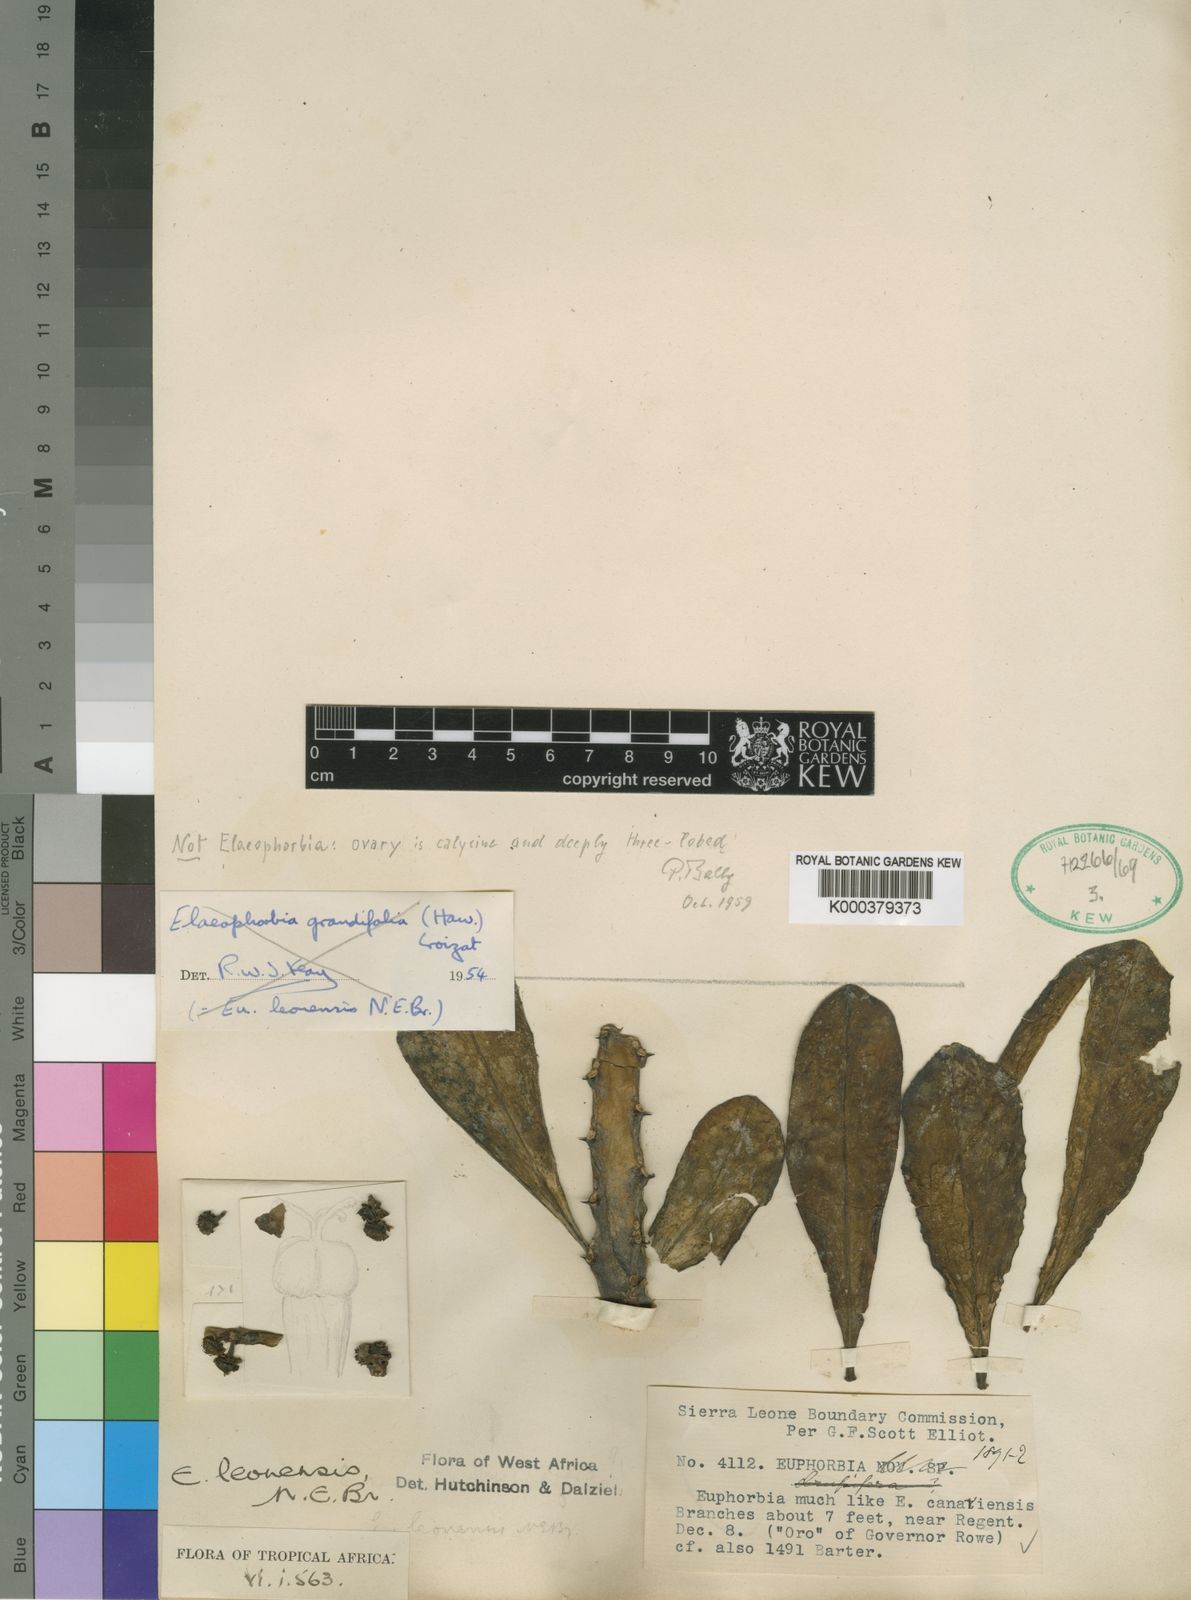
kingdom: Plantae
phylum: Tracheophyta
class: Magnoliopsida
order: Malpighiales
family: Euphorbiaceae
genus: Euphorbia
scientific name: Euphorbia grandifolia
